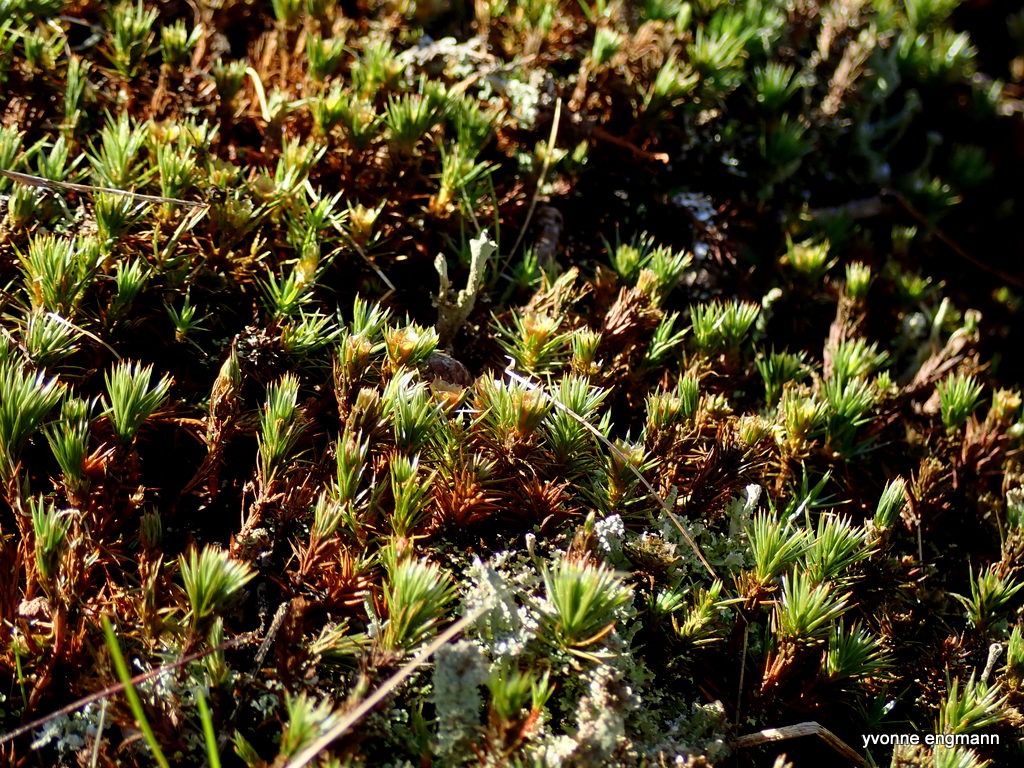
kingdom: Plantae
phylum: Bryophyta
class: Polytrichopsida
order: Polytrichales
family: Polytrichaceae
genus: Polytrichum
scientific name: Polytrichum juniperinum
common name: Ene-jomfruhår
